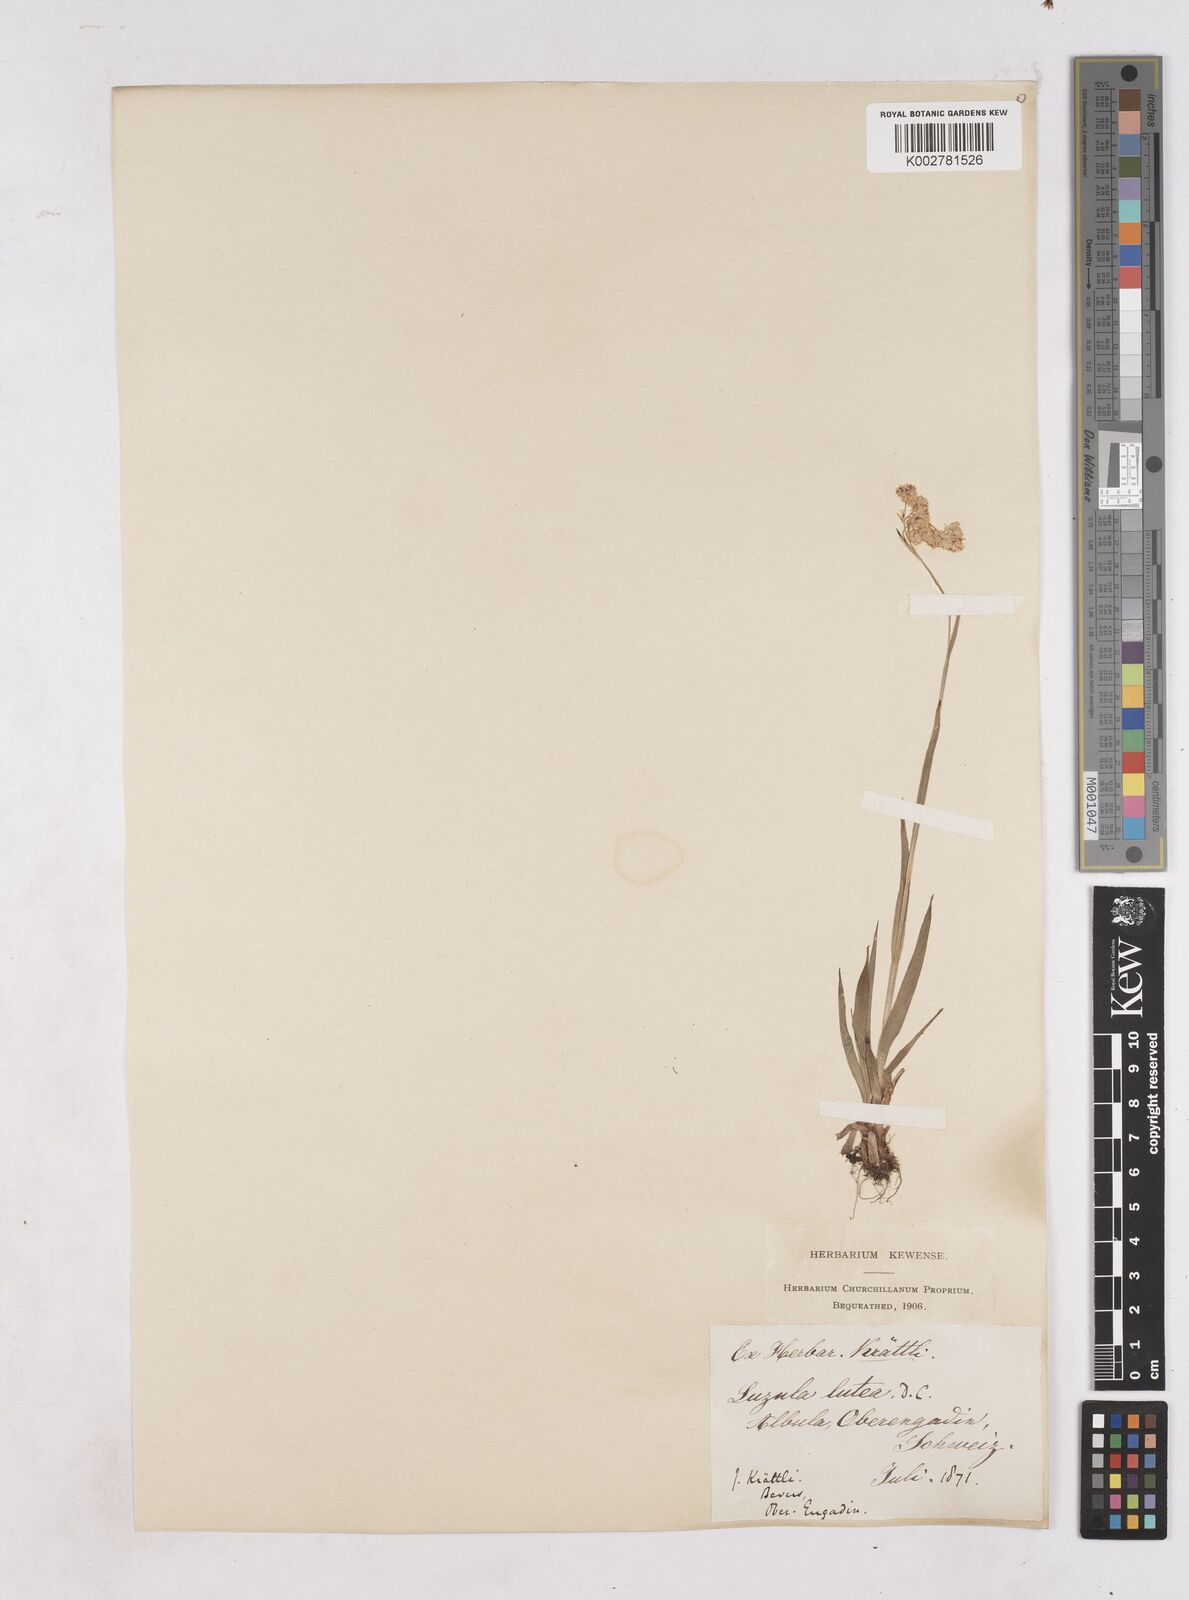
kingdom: Plantae
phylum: Tracheophyta
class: Liliopsida
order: Poales
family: Juncaceae
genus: Luzula
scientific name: Luzula lutea
